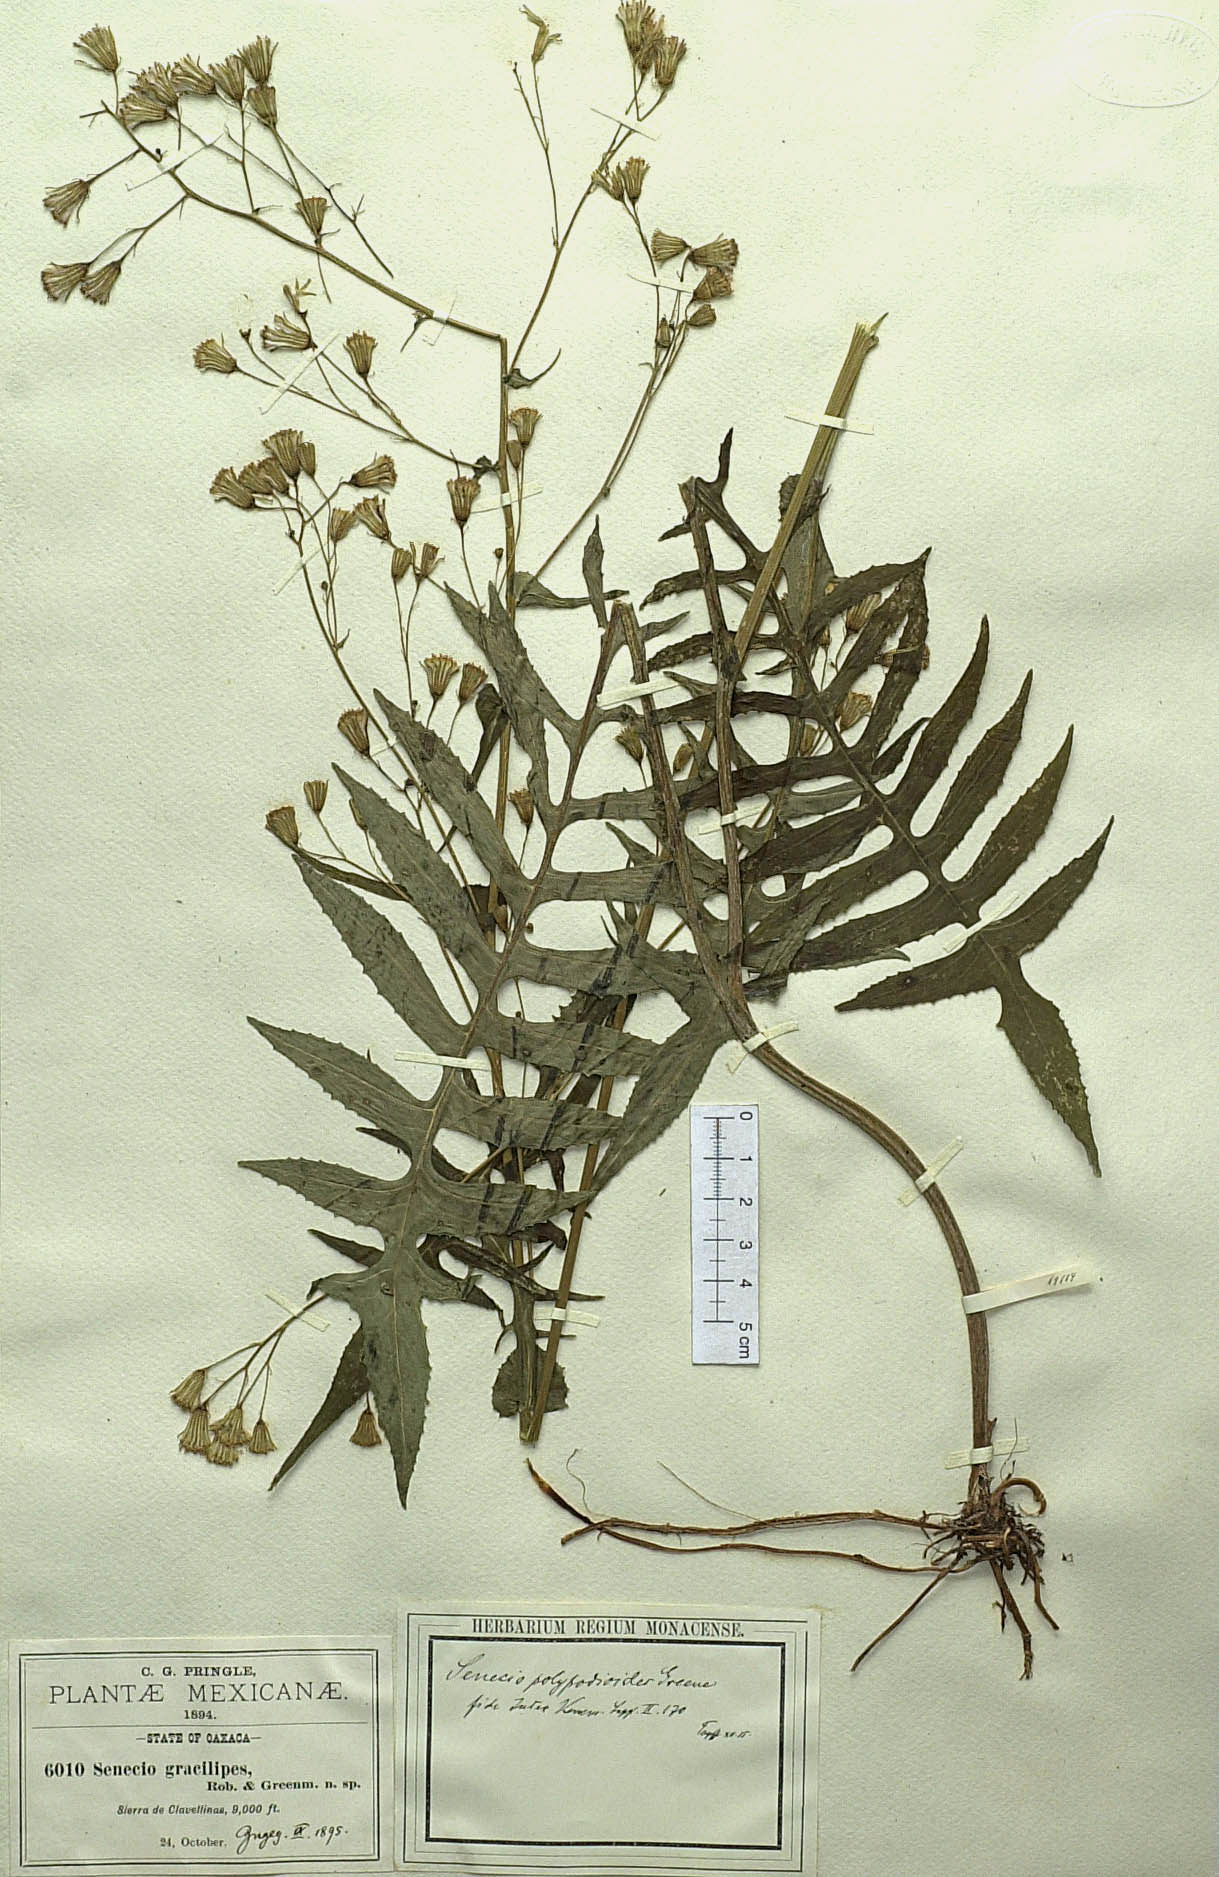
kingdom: Plantae
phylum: Tracheophyta
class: Magnoliopsida
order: Asterales
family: Asteraceae
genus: Senecio
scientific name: Senecio polypodioides
